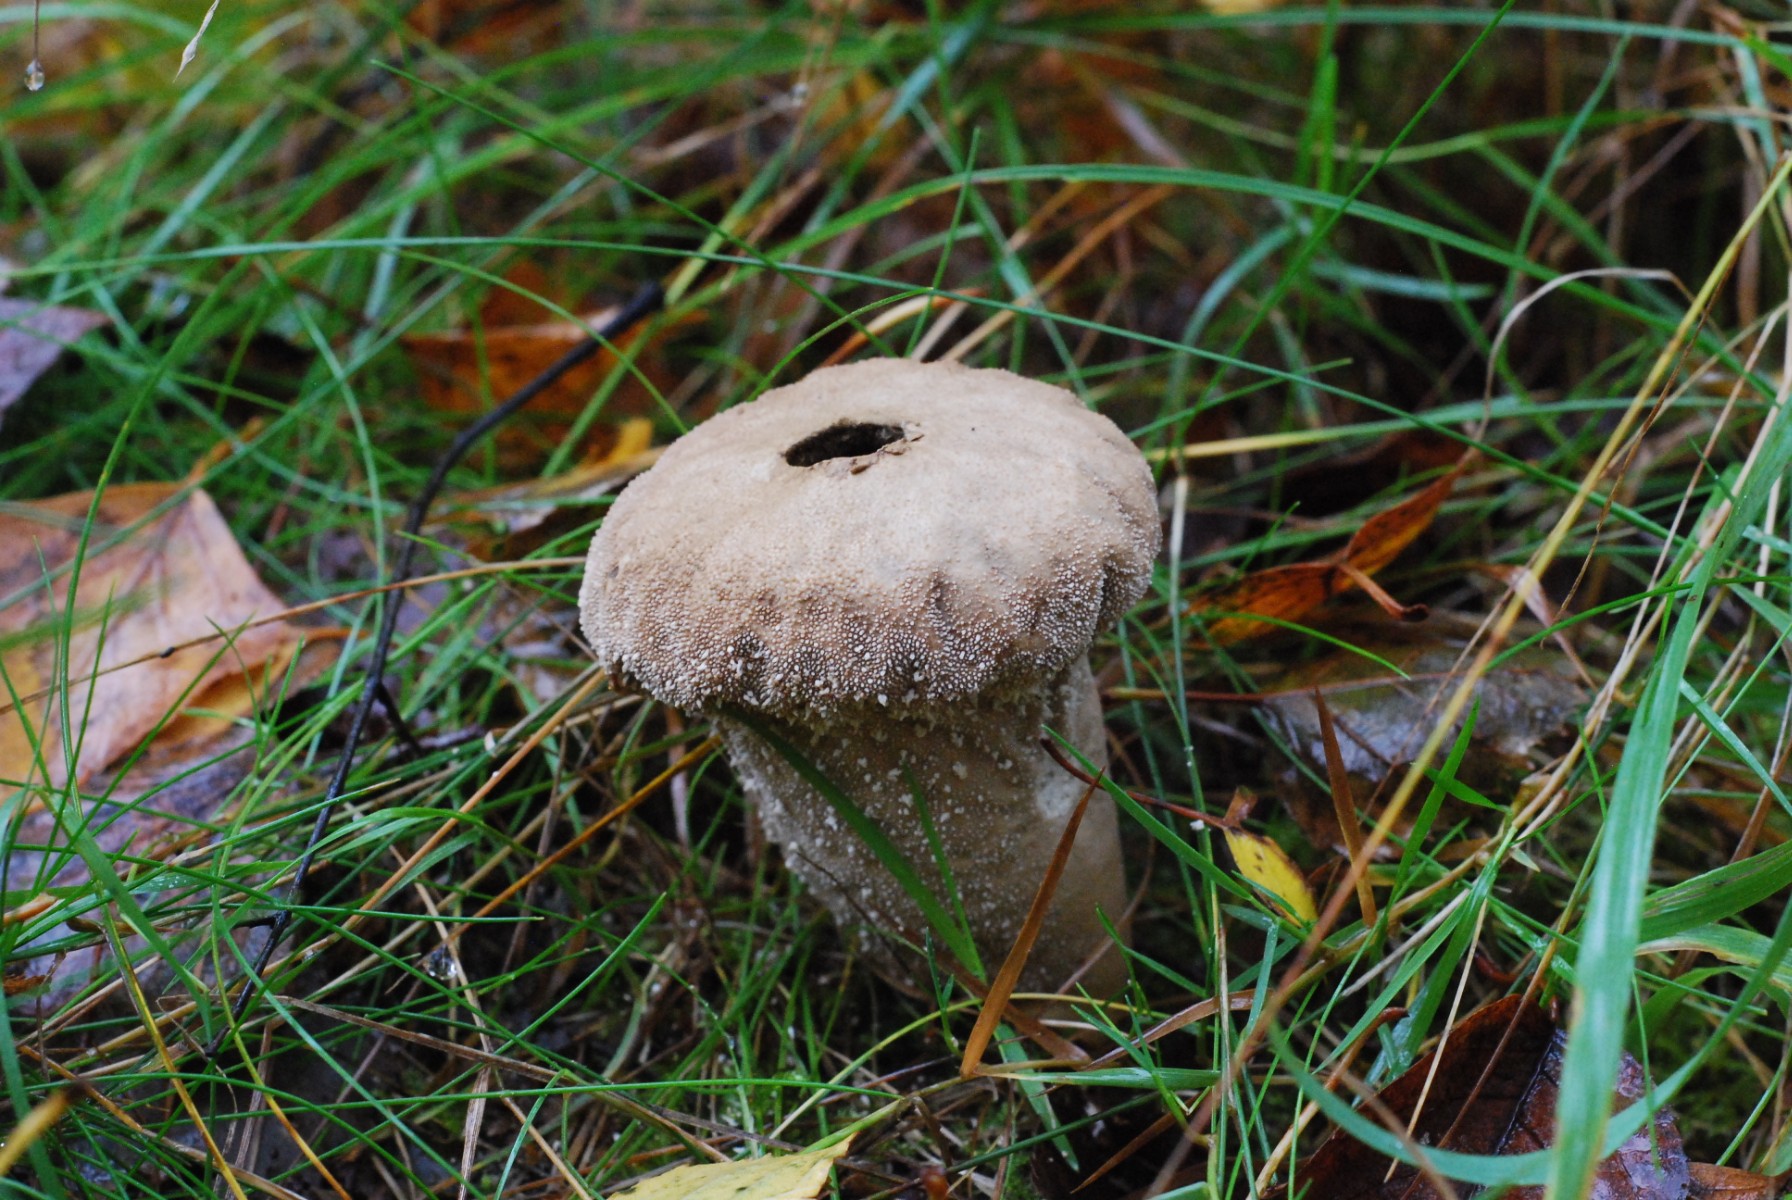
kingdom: Fungi
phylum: Basidiomycota
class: Agaricomycetes
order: Agaricales
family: Lycoperdaceae
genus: Lycoperdon
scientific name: Lycoperdon perlatum
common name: krystal-støvbold
